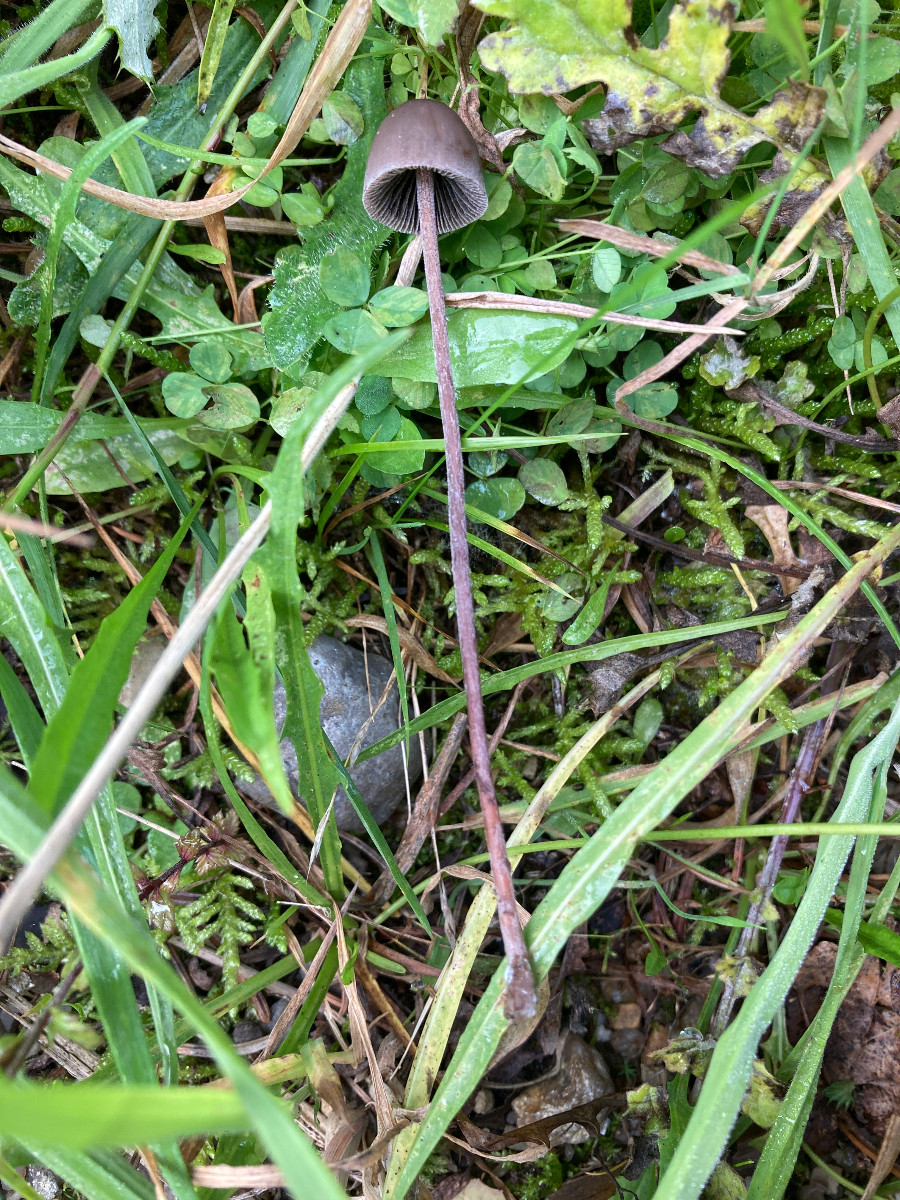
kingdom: Fungi
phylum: Basidiomycota
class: Agaricomycetes
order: Agaricales
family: Bolbitiaceae
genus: Panaeolus
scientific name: Panaeolus acuminatus
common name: høj glanshat
